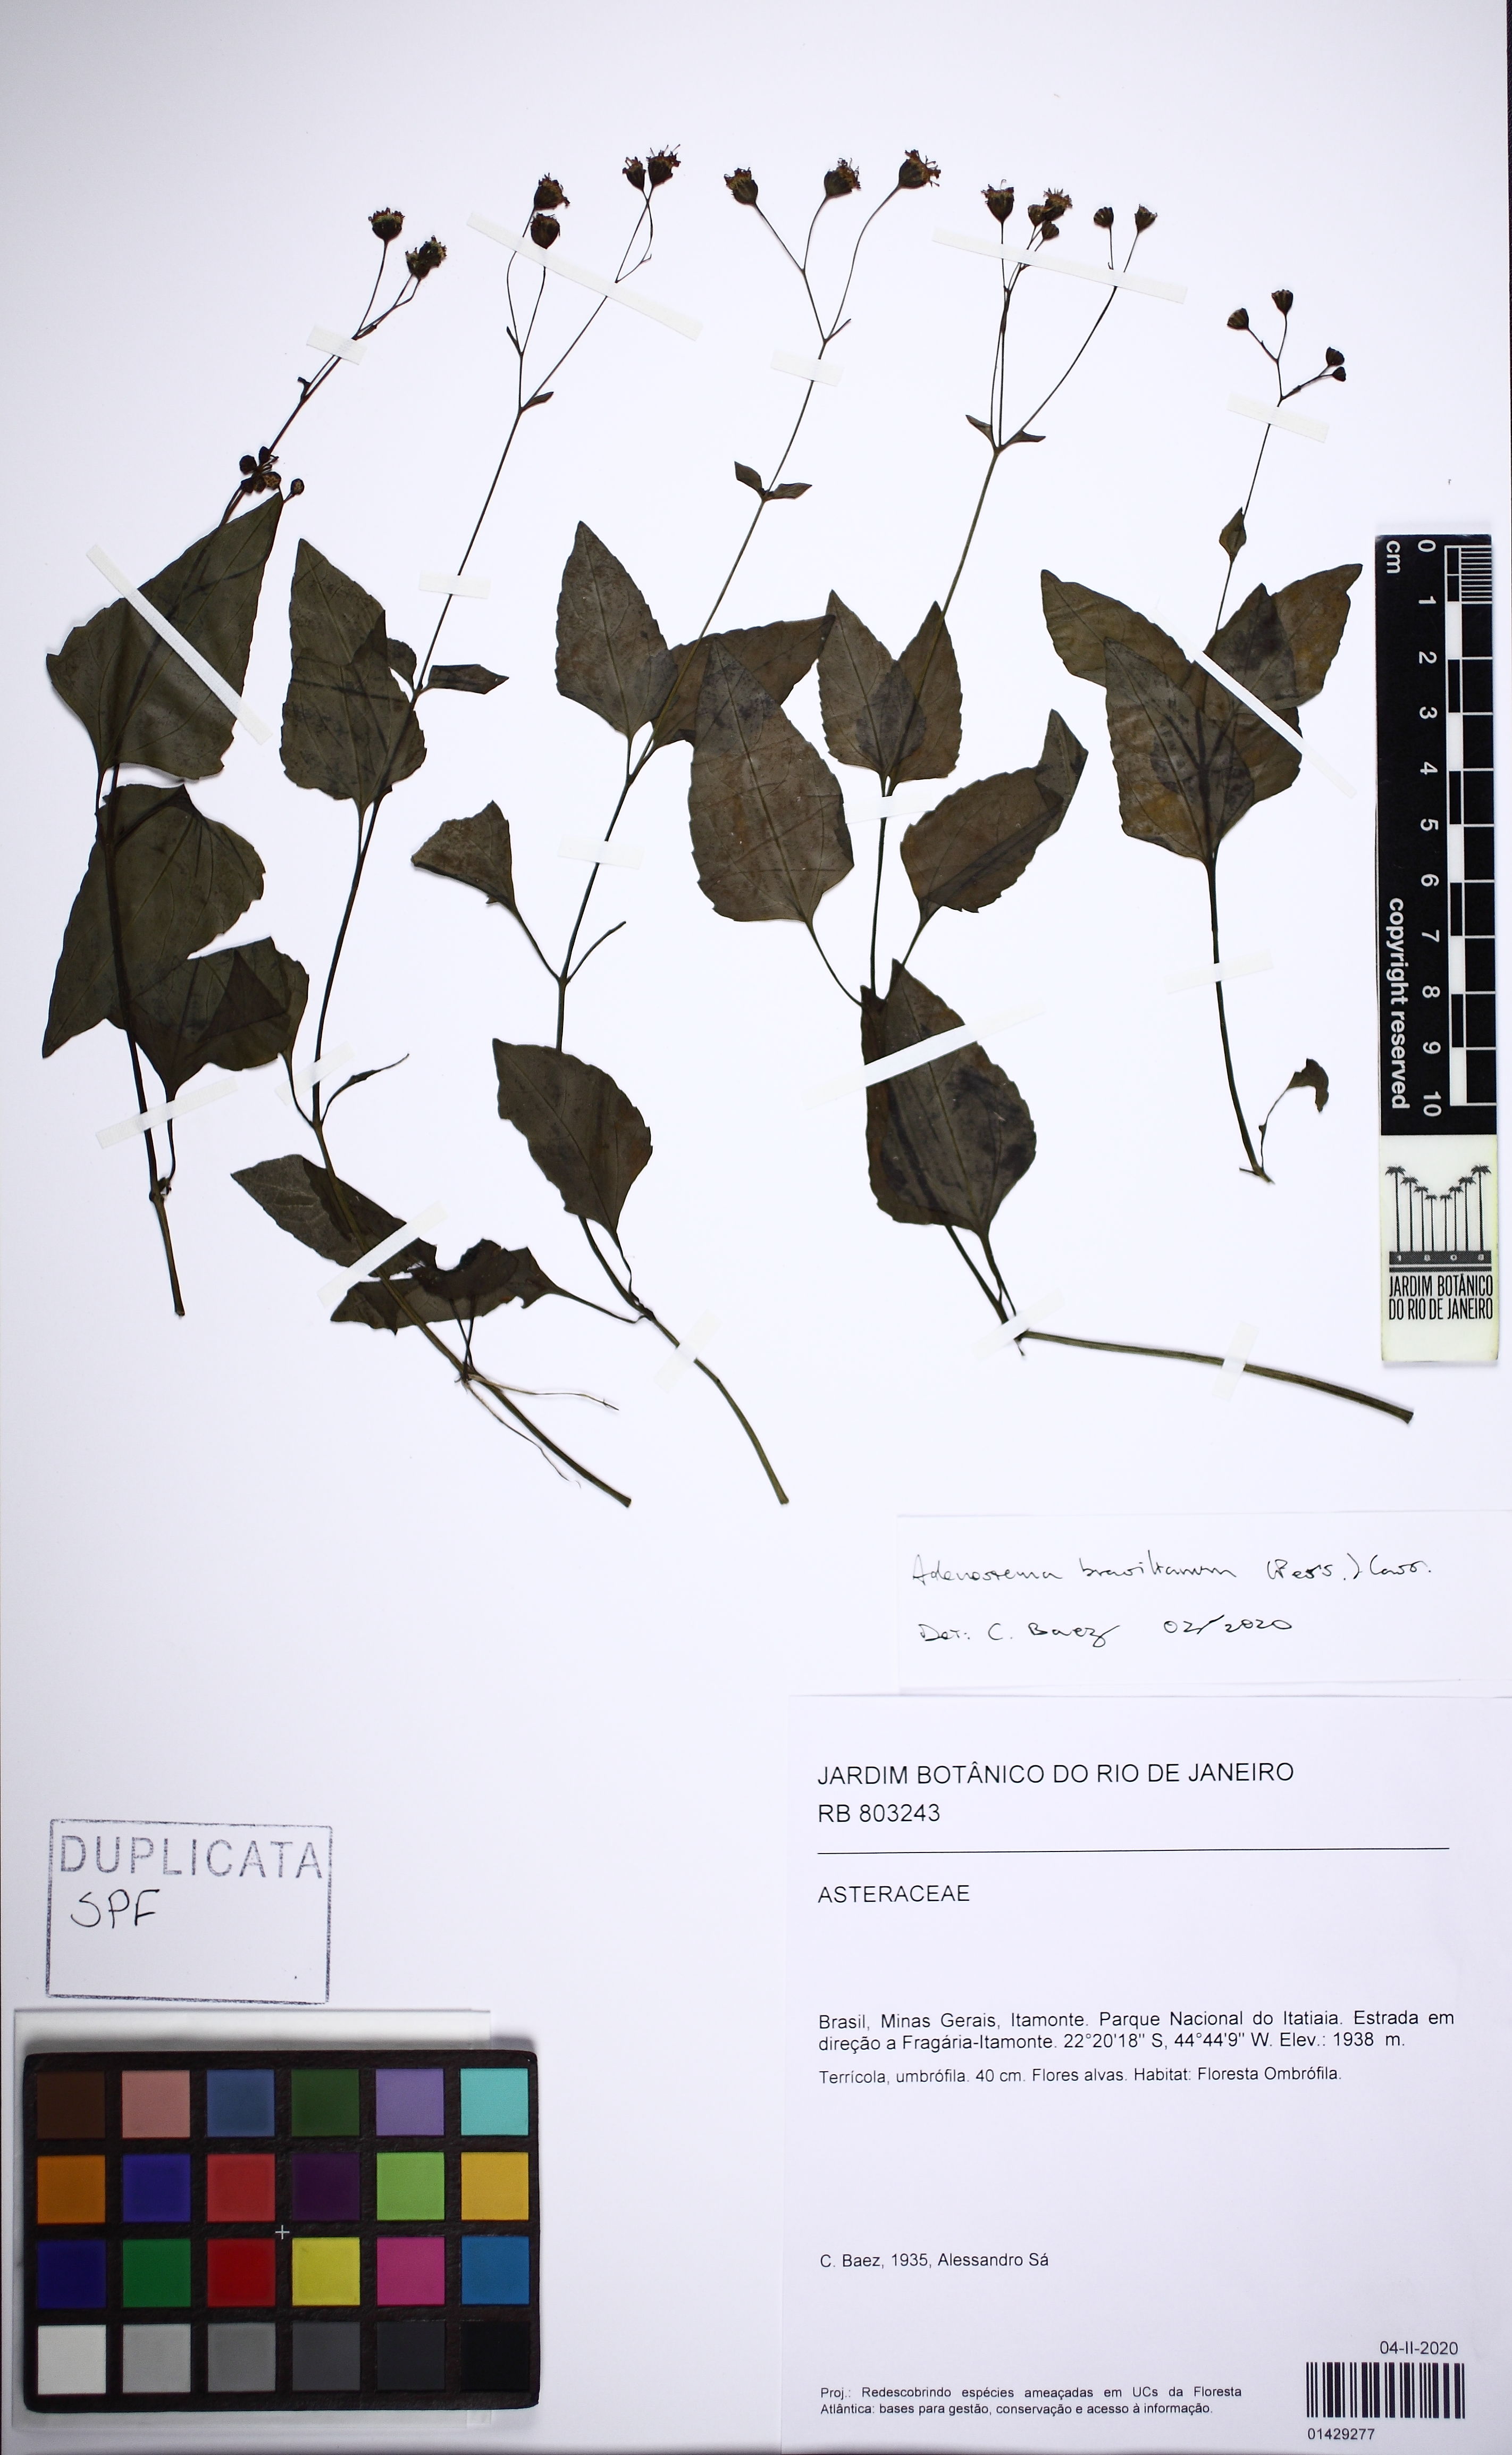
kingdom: Plantae
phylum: Tracheophyta
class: Magnoliopsida
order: Asterales
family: Asteraceae
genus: Adenostemma
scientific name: Adenostemma brasilianum
